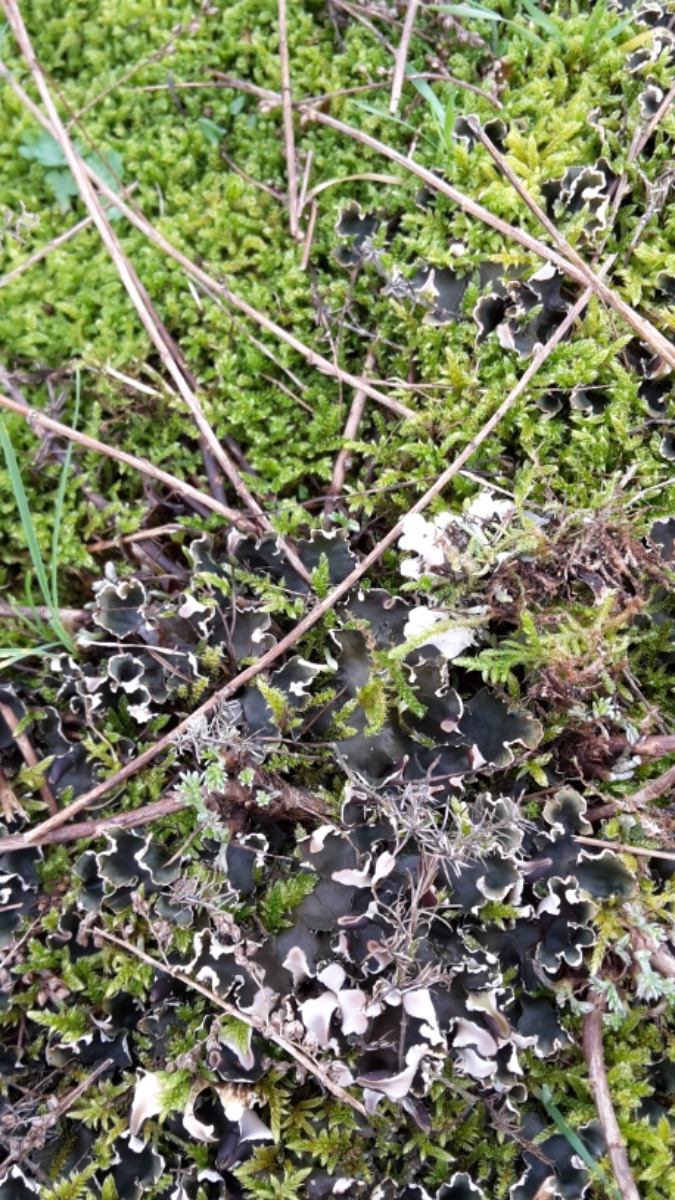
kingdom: Fungi
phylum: Ascomycota
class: Lecanoromycetes
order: Peltigerales
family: Peltigeraceae
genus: Peltigera
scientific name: Peltigera neckeri
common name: glinsende skjoldlav
